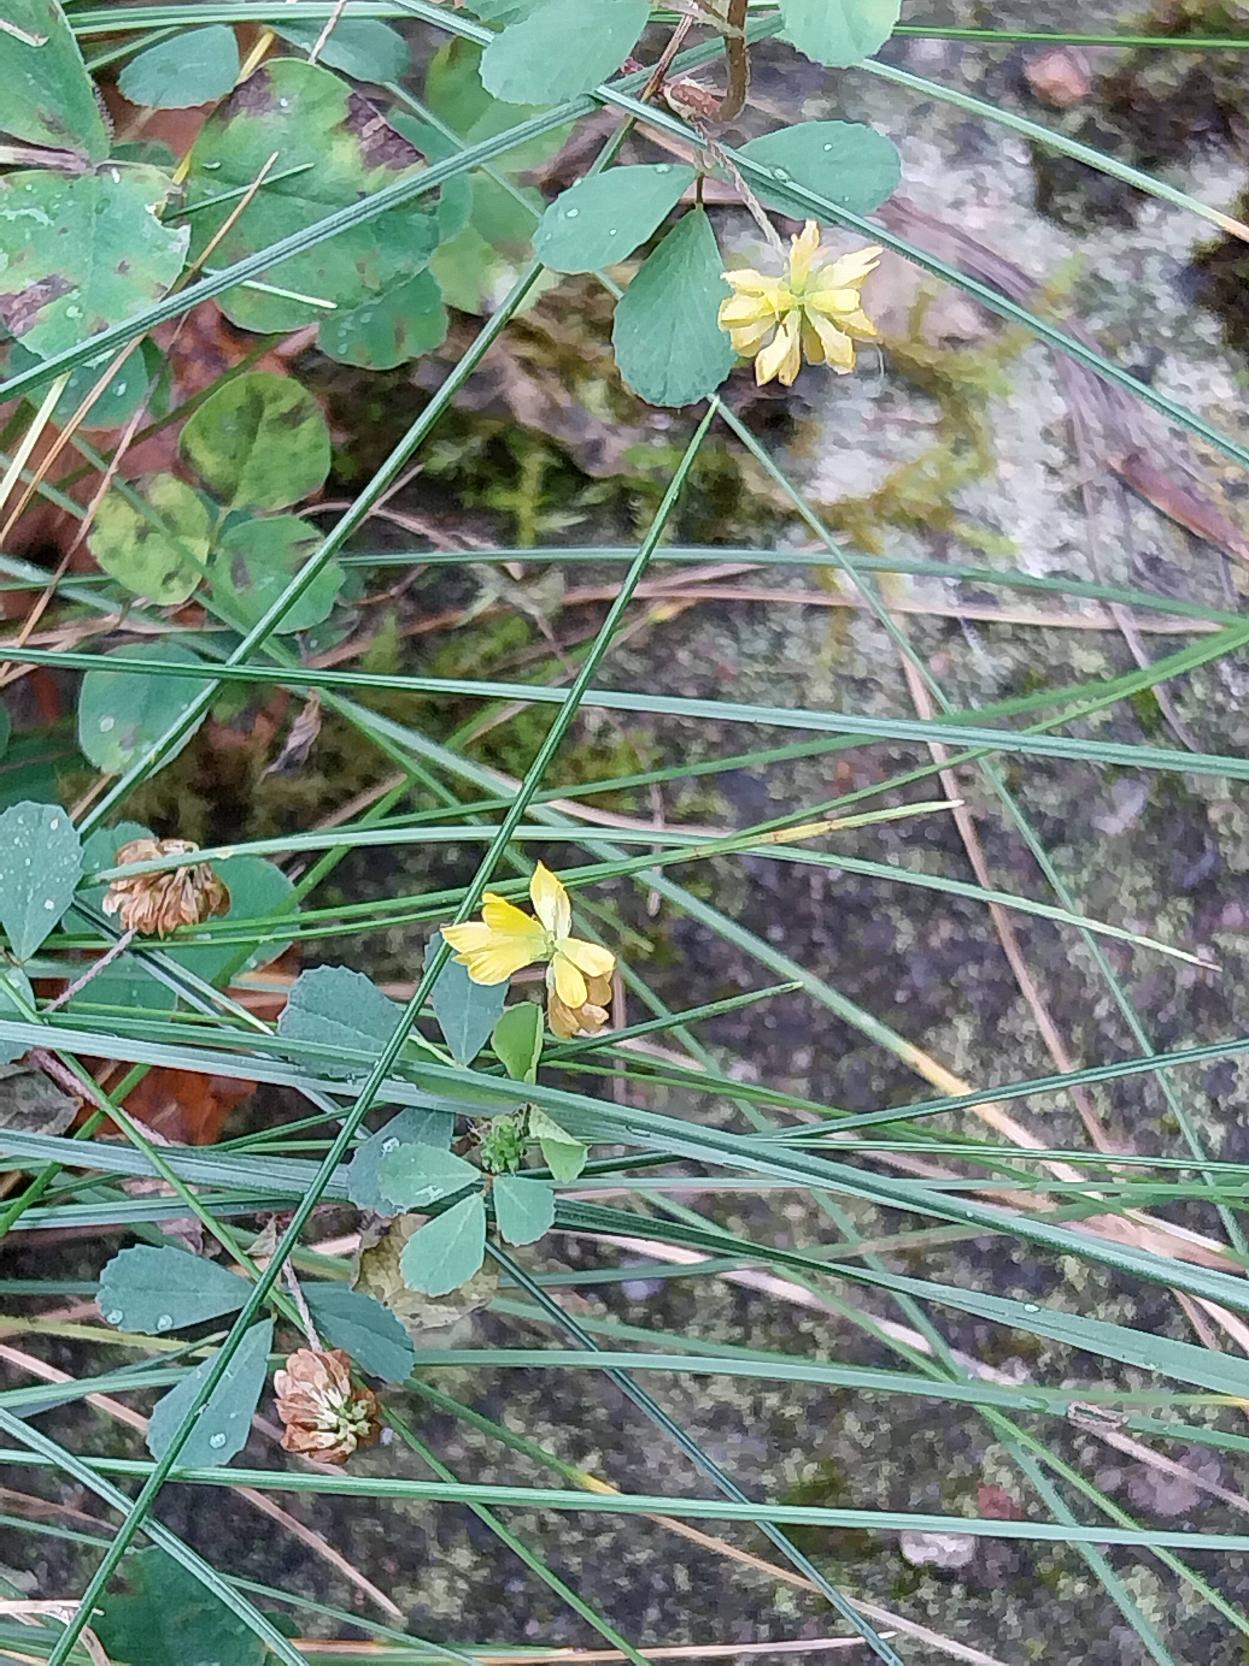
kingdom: Plantae
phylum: Tracheophyta
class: Magnoliopsida
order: Fabales
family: Fabaceae
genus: Trifolium
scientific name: Trifolium dubium
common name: Fin kløver
